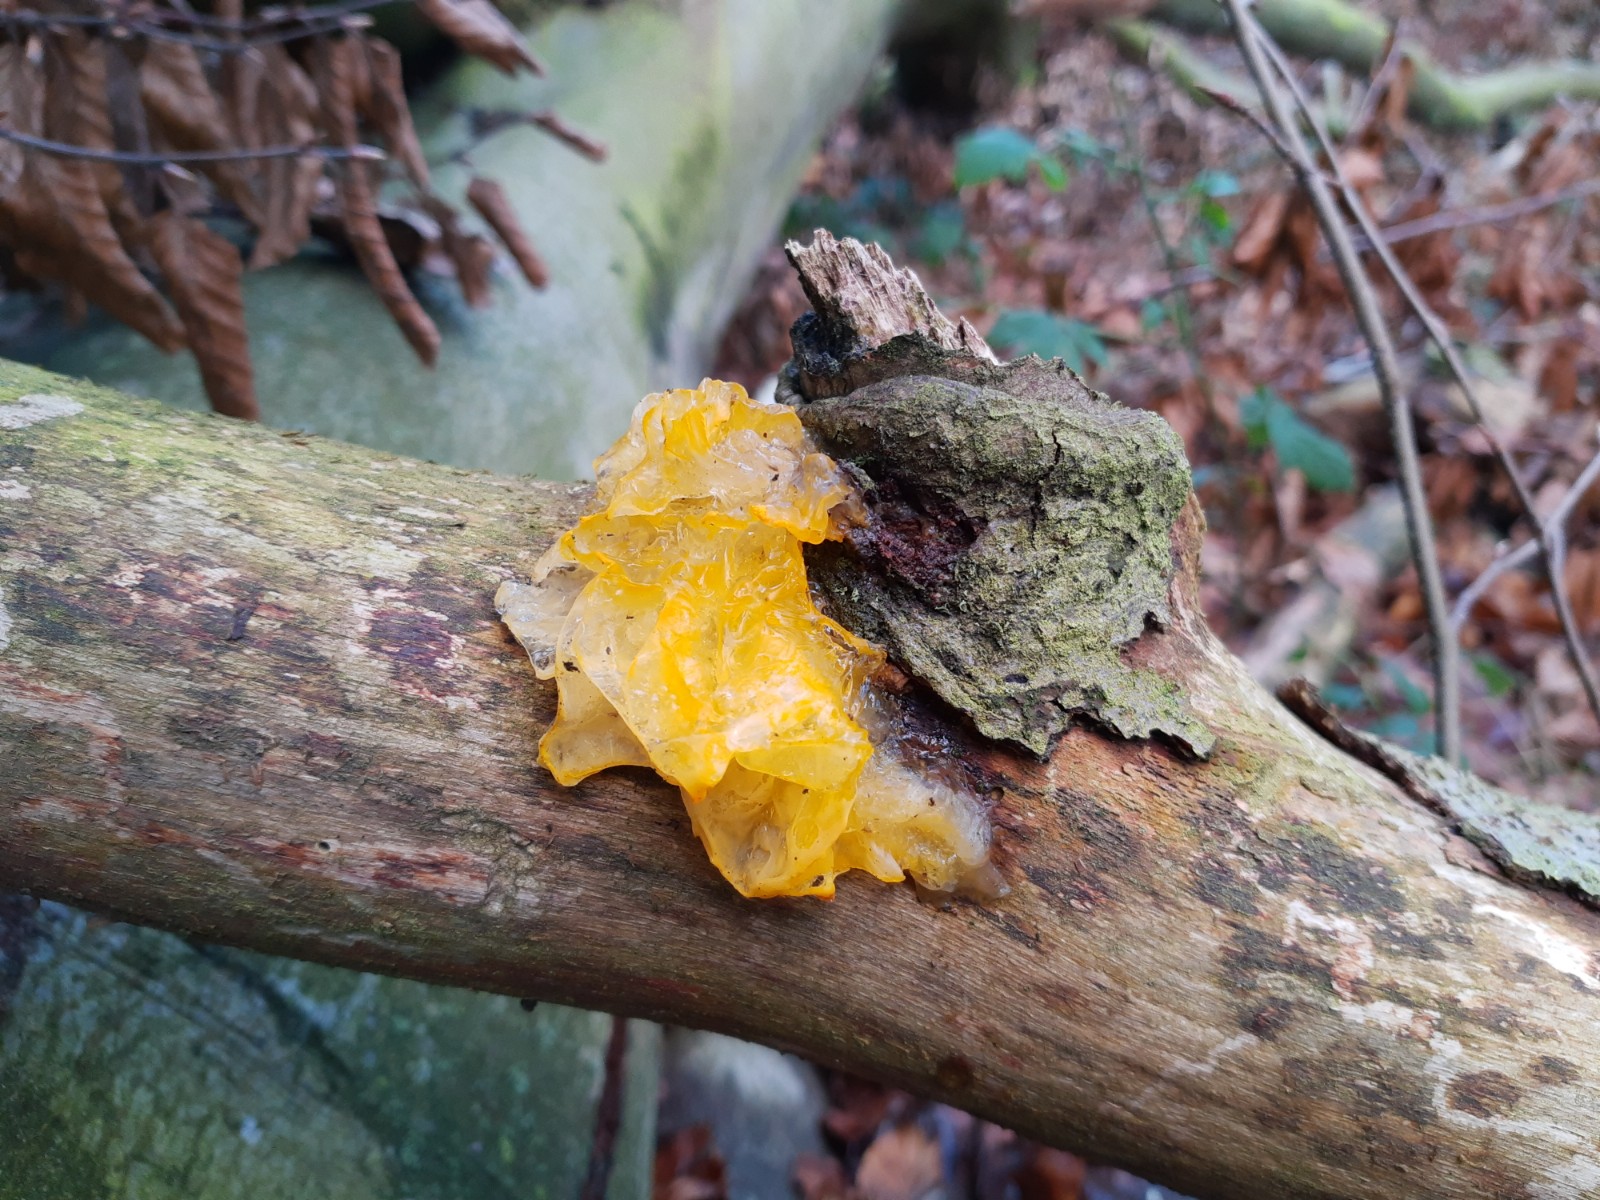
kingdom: Fungi
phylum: Basidiomycota
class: Tremellomycetes
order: Tremellales
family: Tremellaceae
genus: Tremella
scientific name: Tremella mesenterica
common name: gul bævresvamp
